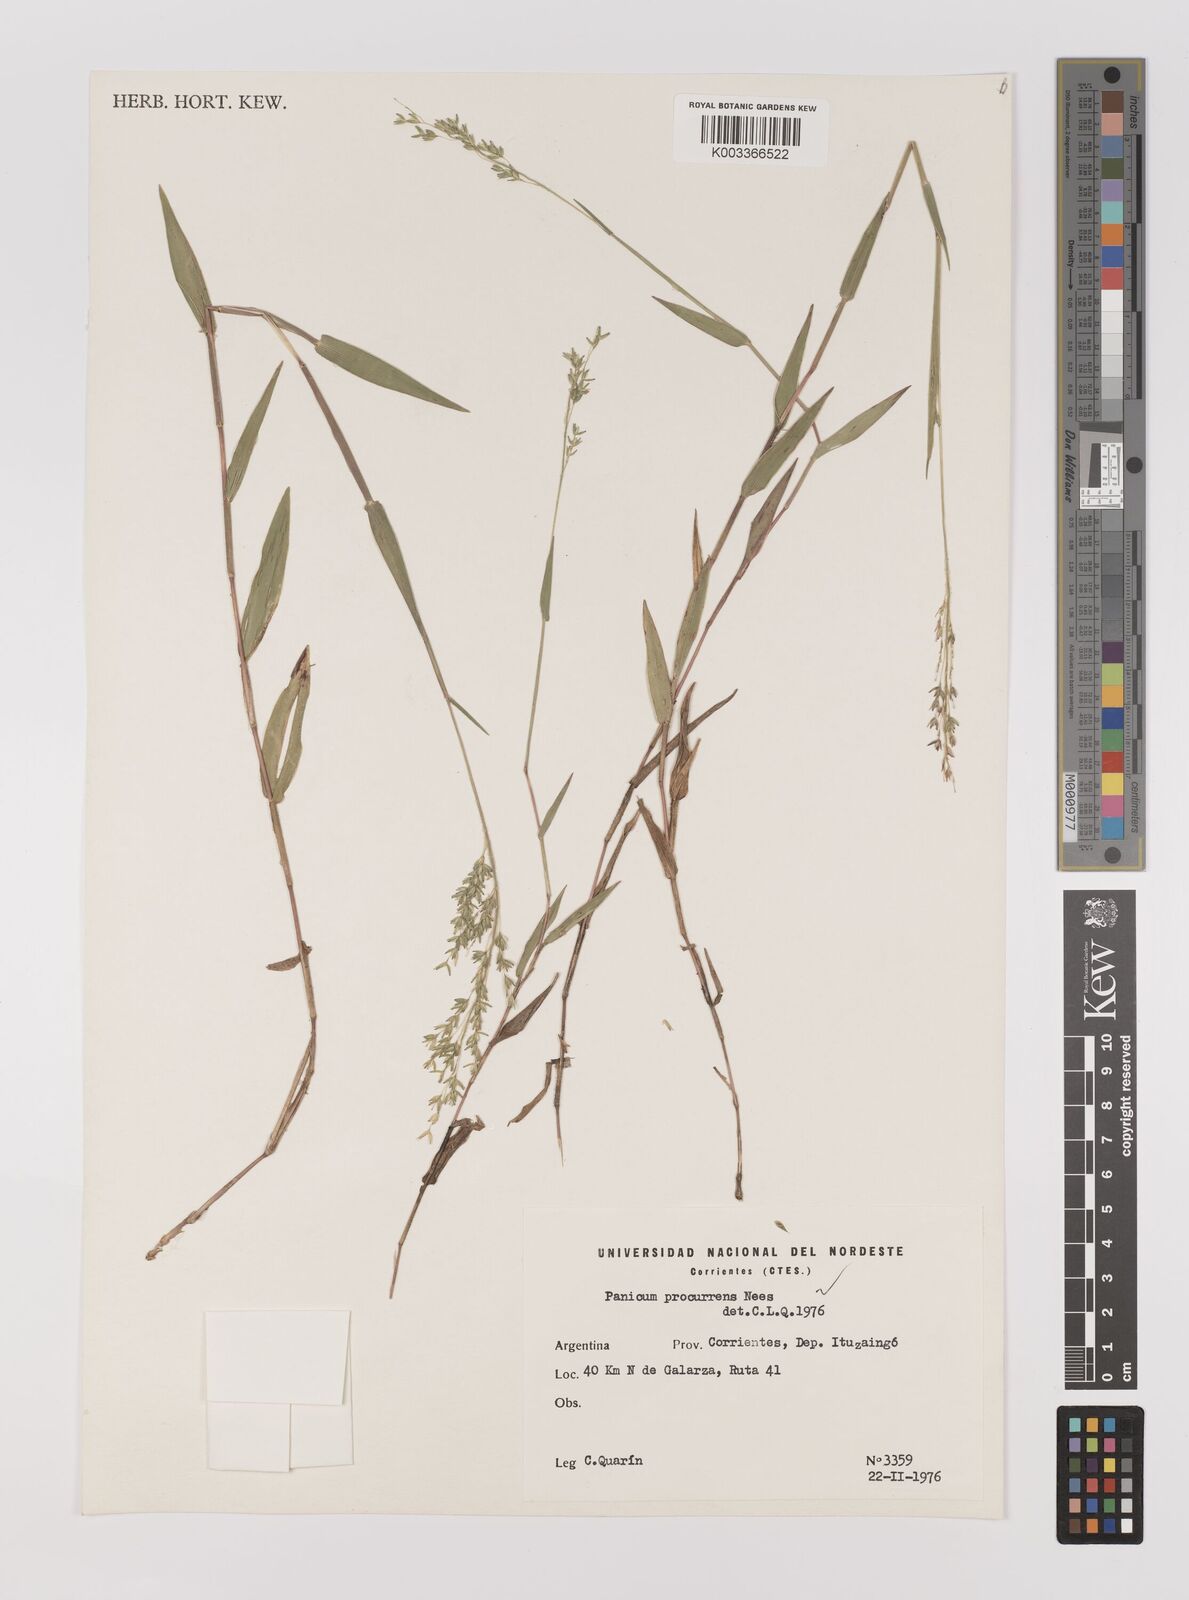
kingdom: Plantae
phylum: Tracheophyta
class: Liliopsida
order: Poales
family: Poaceae
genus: Oedochloa
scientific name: Oedochloa procurrens
